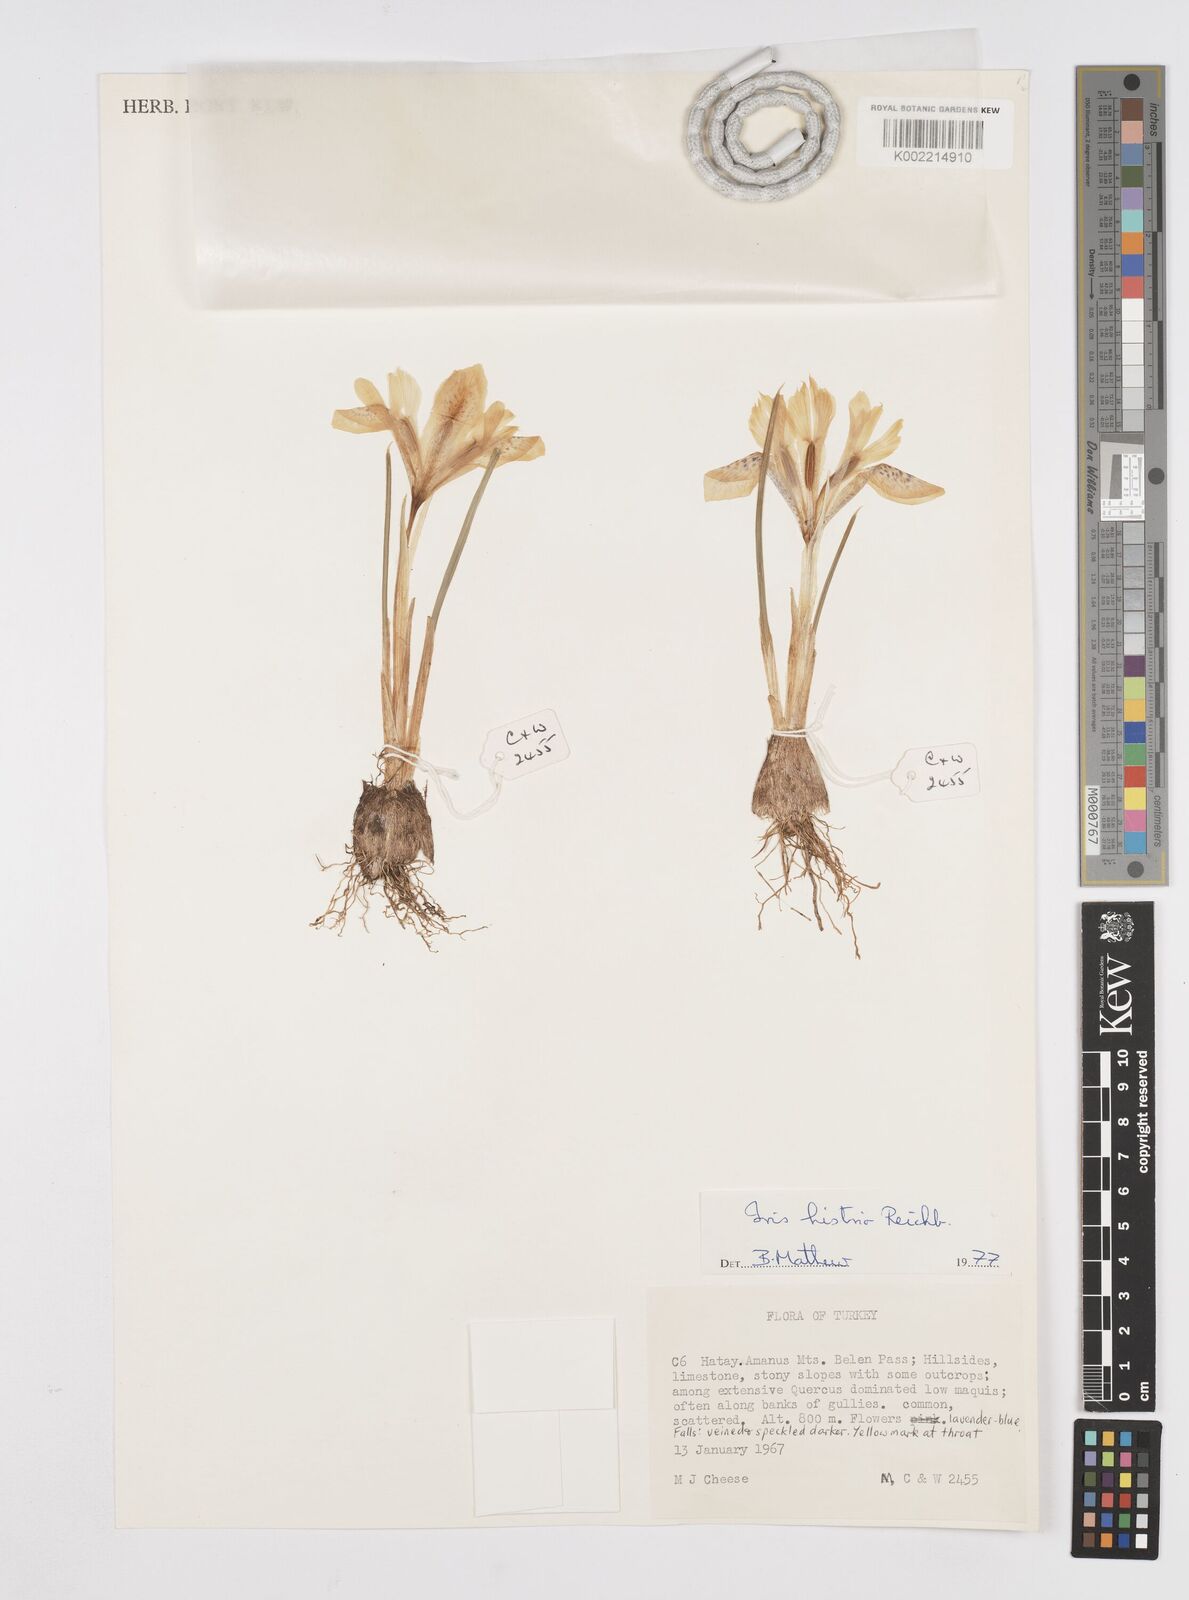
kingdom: Plantae
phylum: Tracheophyta
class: Liliopsida
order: Asparagales
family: Iridaceae
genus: Iris
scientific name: Iris histrio
